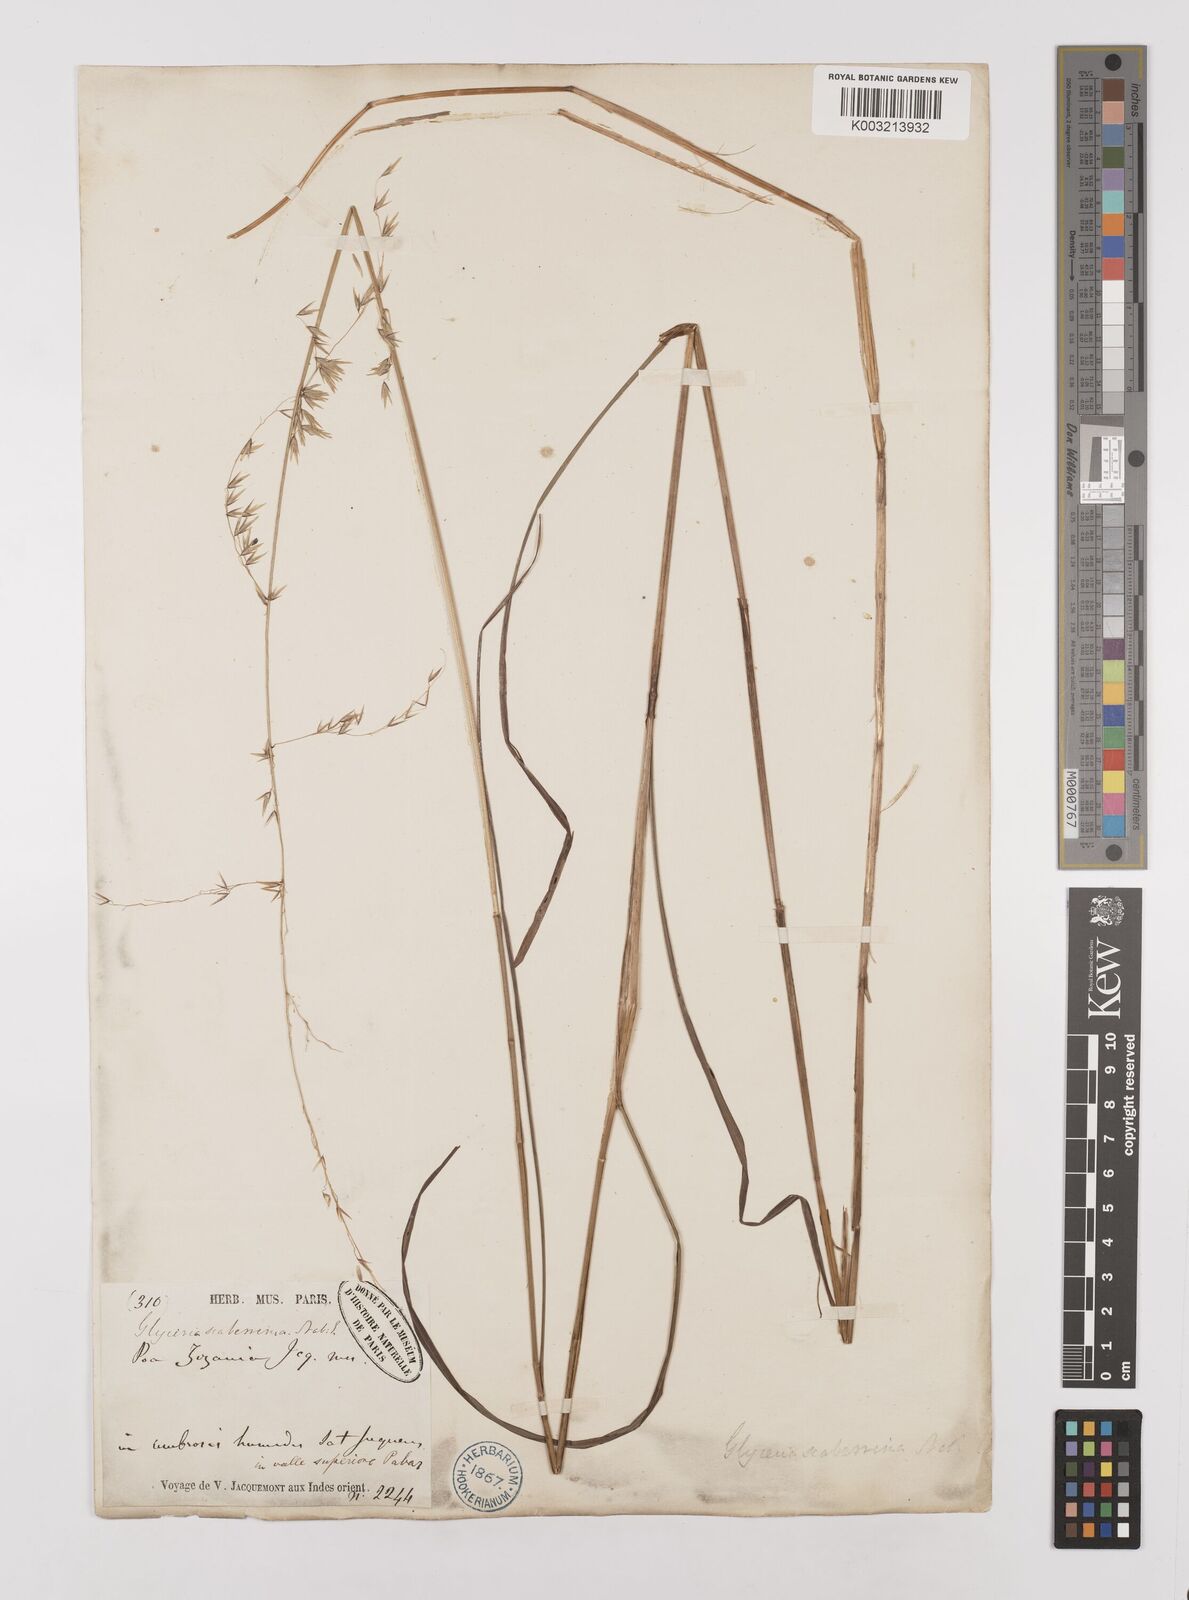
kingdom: Plantae
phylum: Tracheophyta
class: Liliopsida
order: Poales
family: Poaceae
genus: Melica
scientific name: Melica scaberrima
